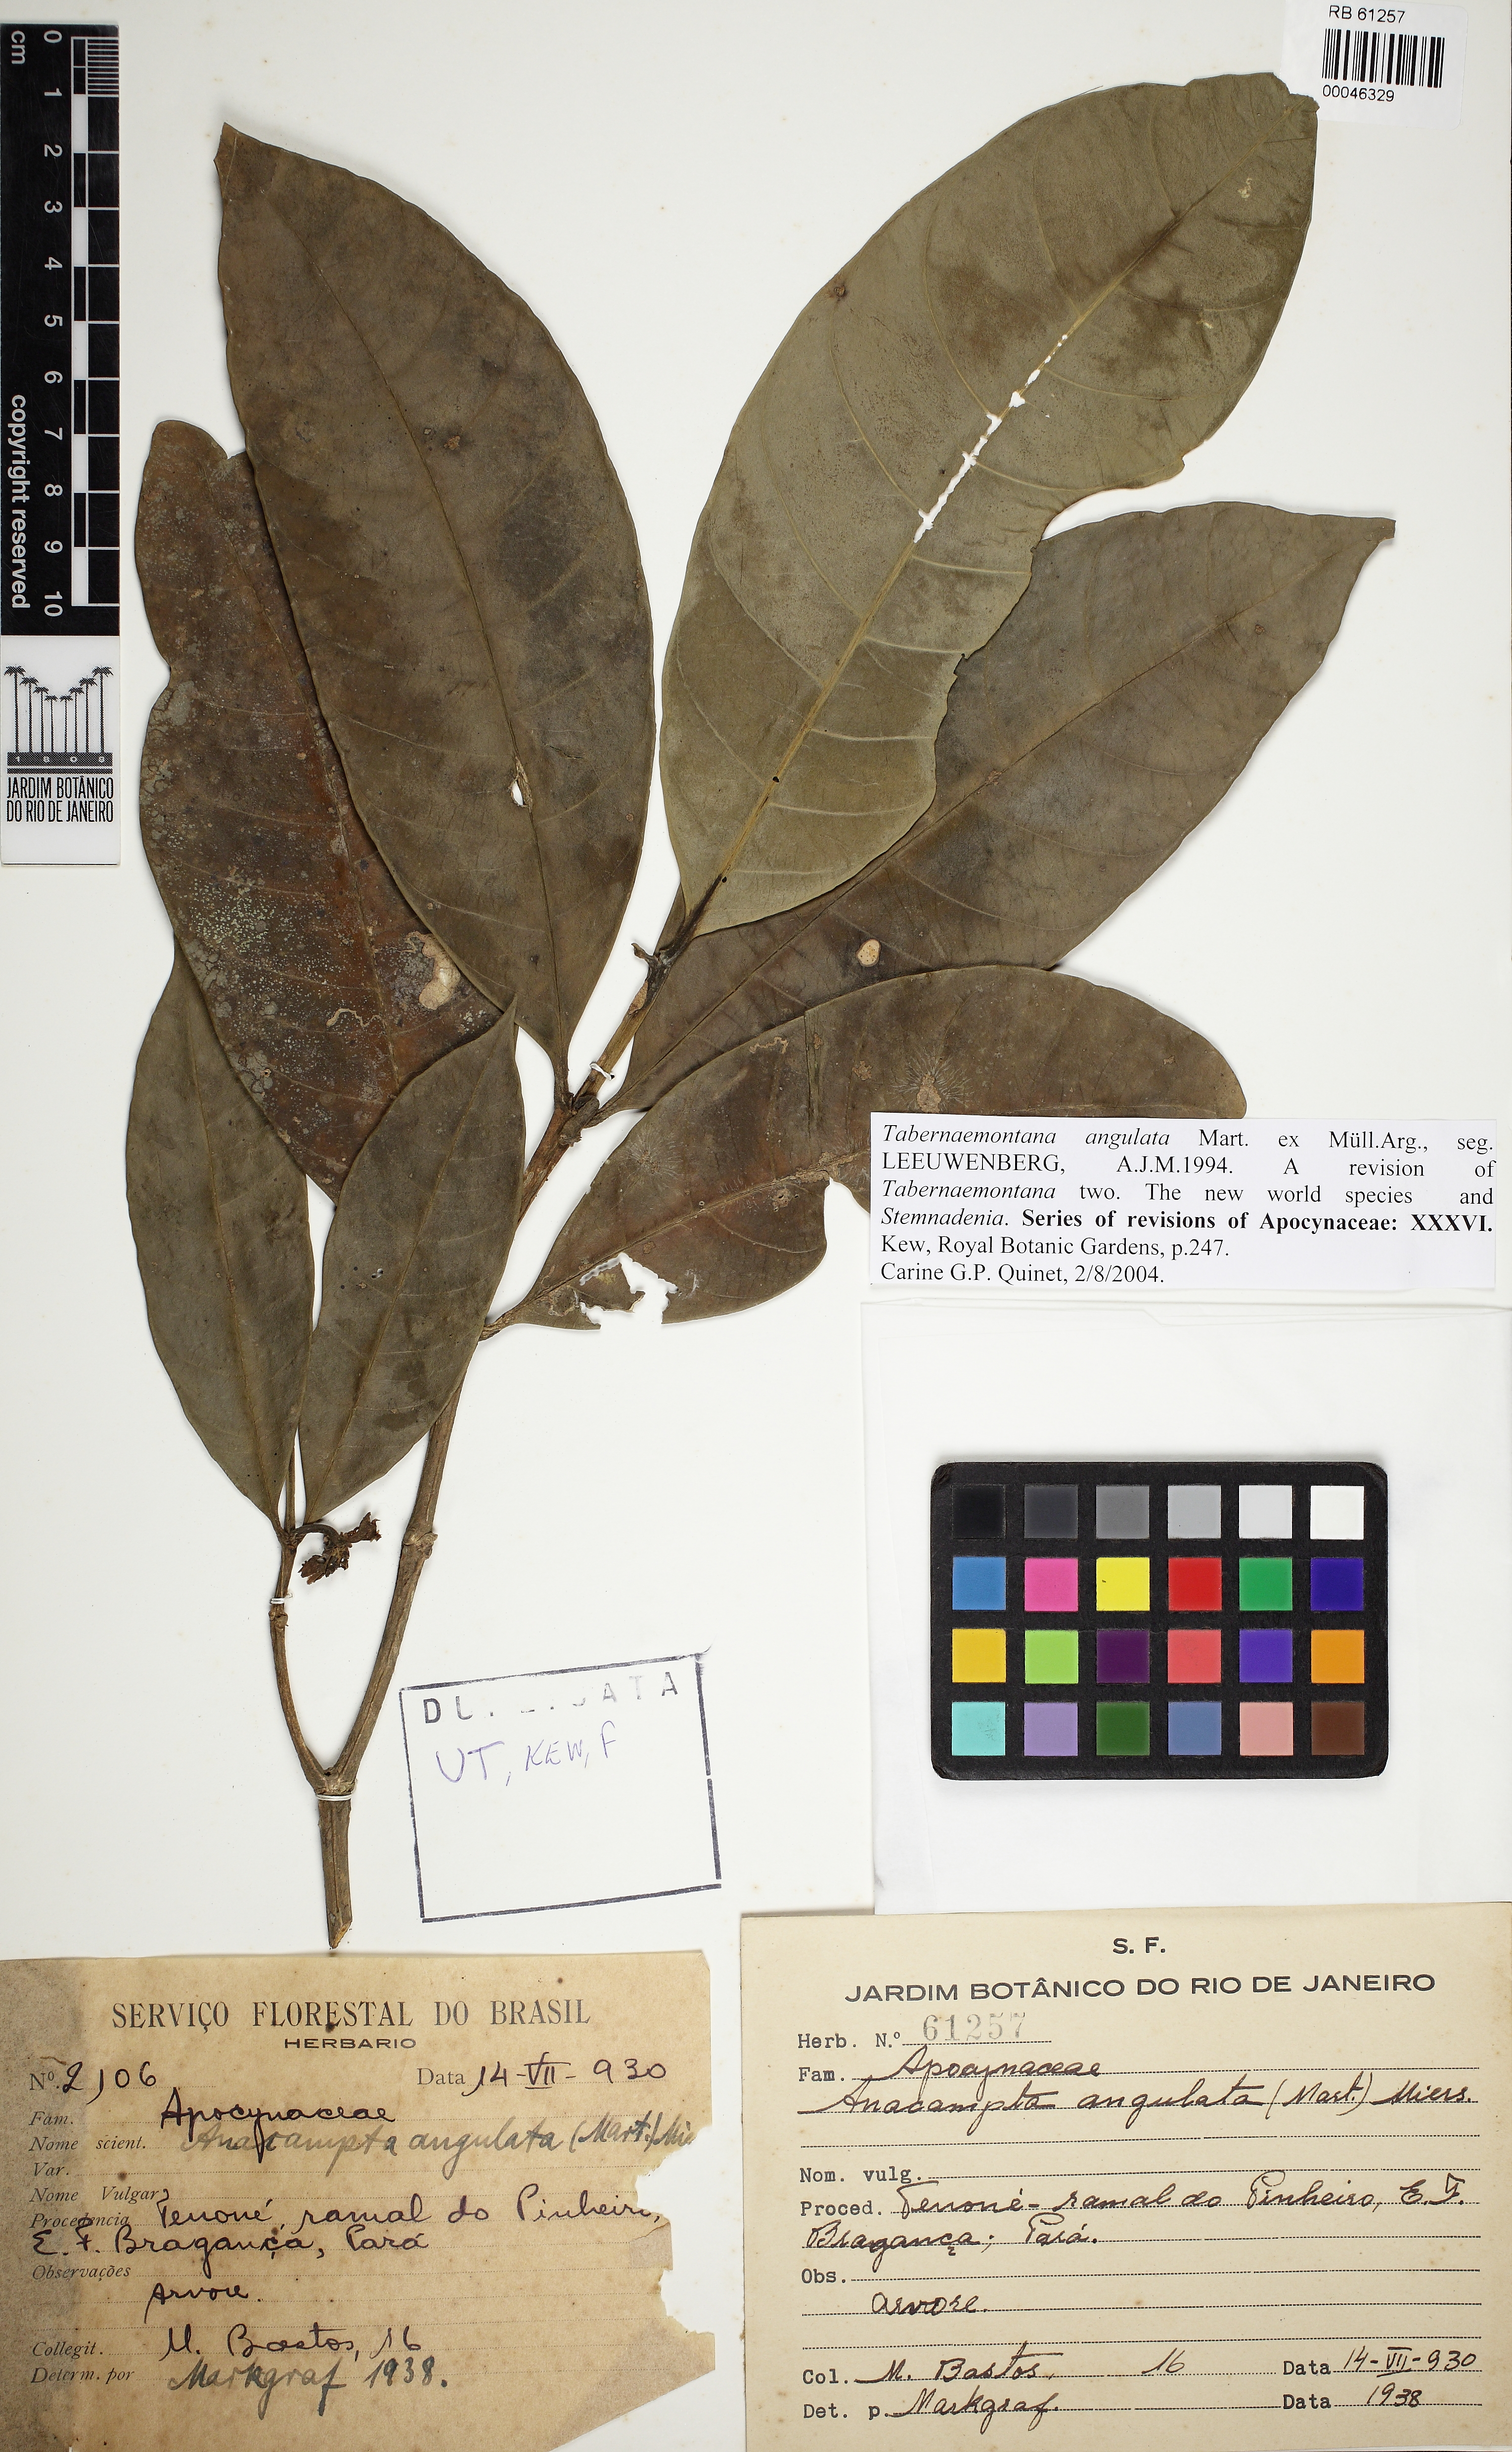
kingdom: Plantae
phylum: Tracheophyta
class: Magnoliopsida
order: Gentianales
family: Apocynaceae
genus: Tabernaemontana
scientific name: Tabernaemontana angulata
